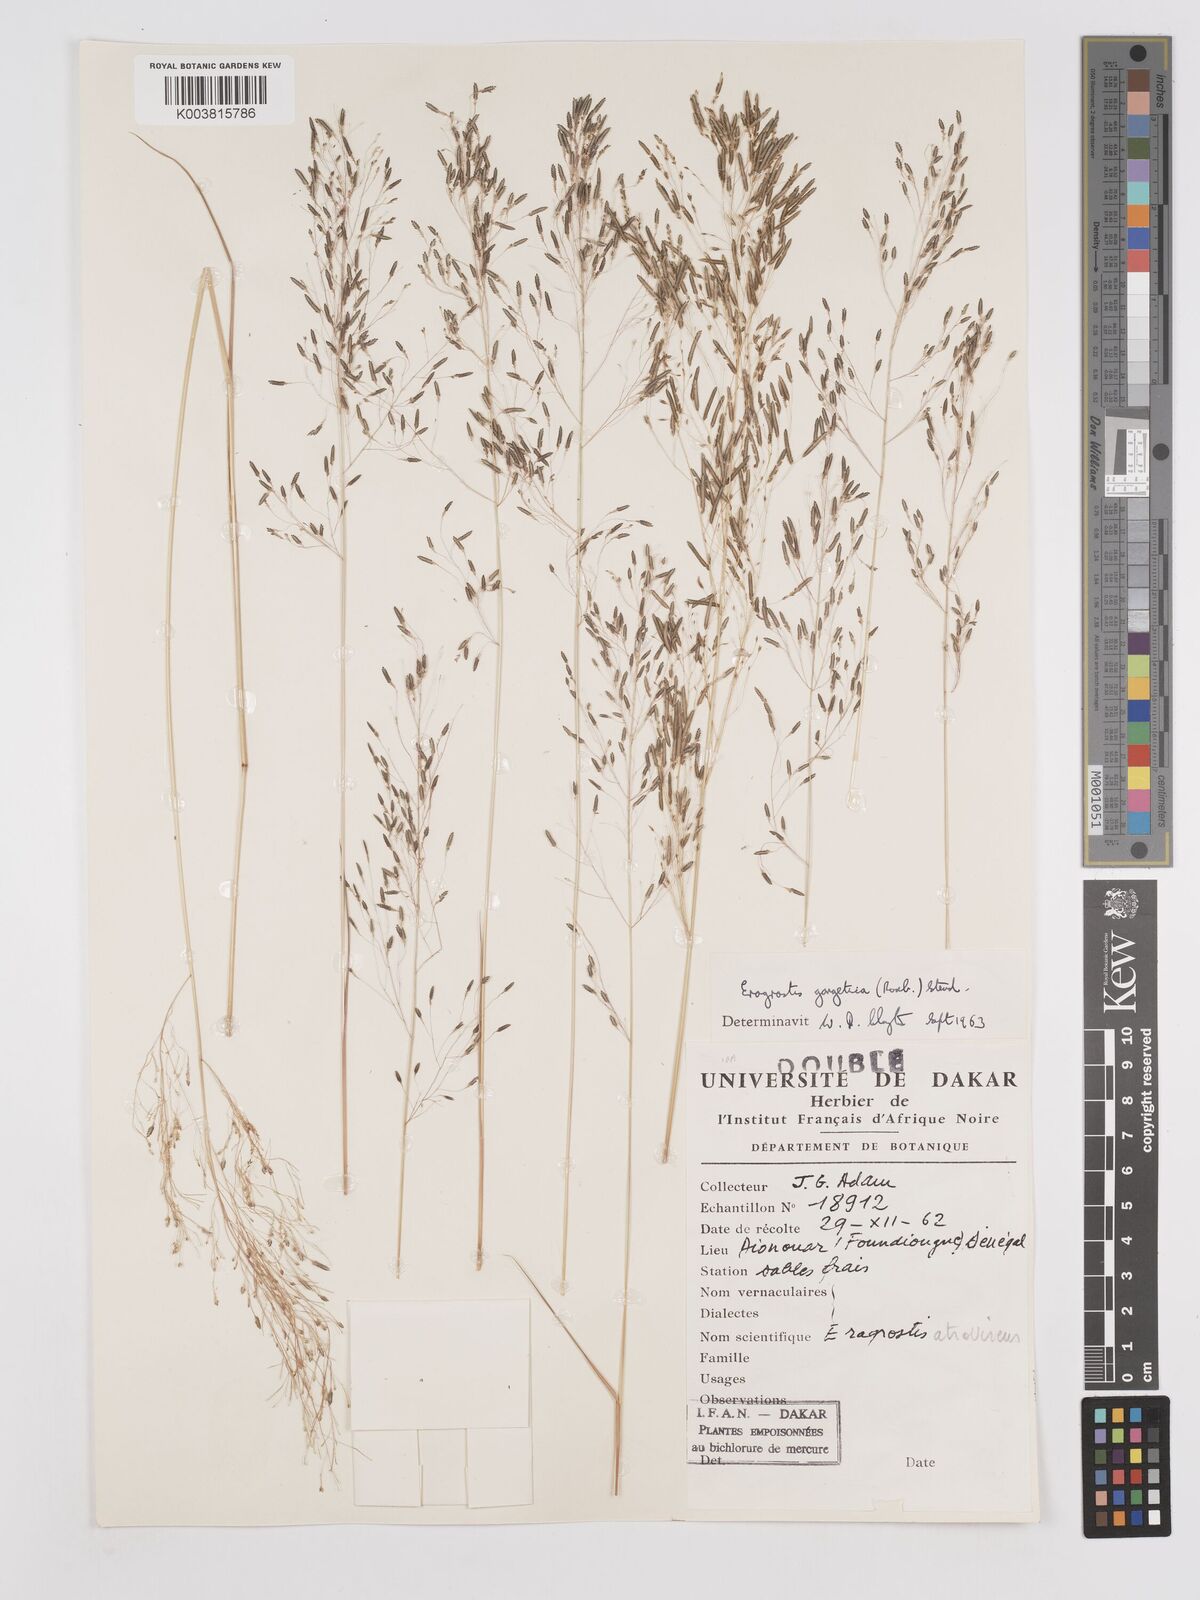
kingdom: Plantae
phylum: Tracheophyta
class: Liliopsida
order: Poales
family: Poaceae
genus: Eragrostis
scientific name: Eragrostis gangetica
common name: Slimflower lovegrass
